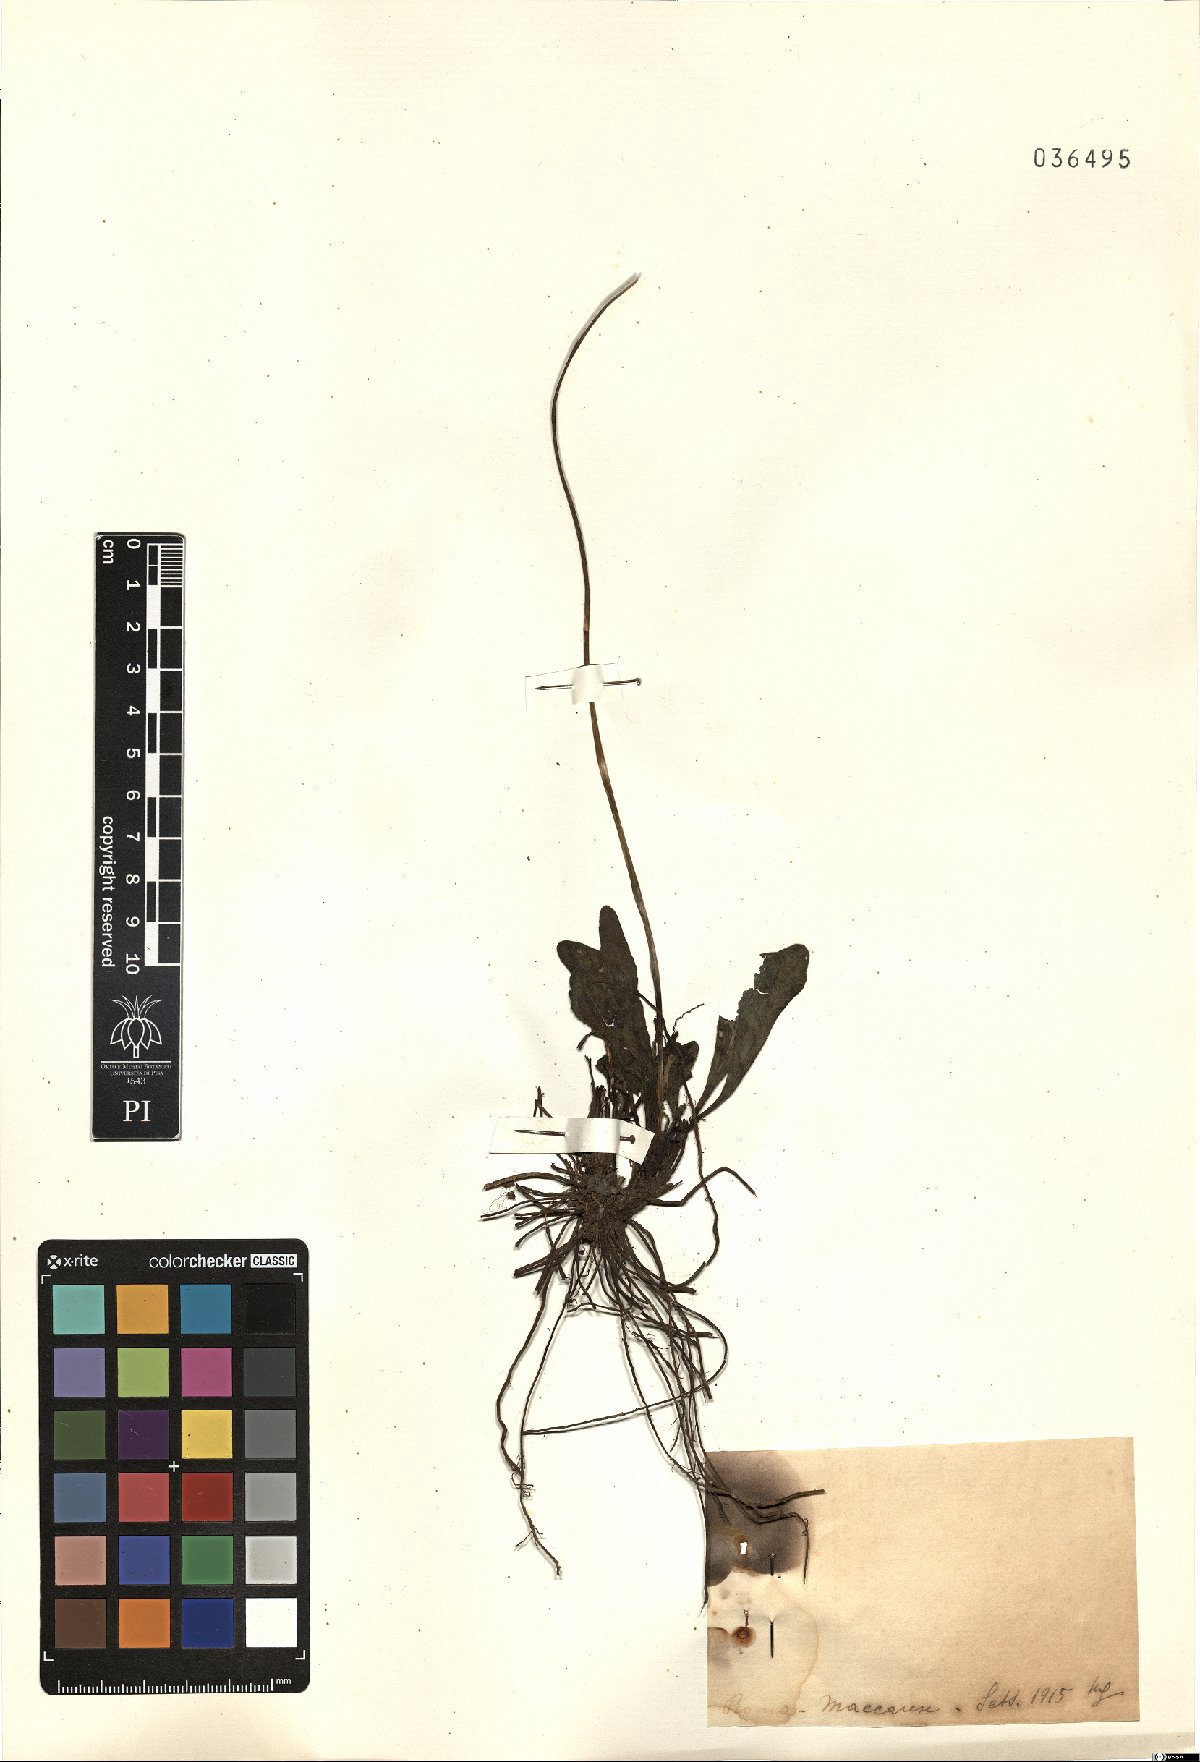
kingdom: Plantae
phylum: Tracheophyta
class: Magnoliopsida
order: Asterales
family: Asteraceae
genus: Bellis
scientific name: Bellis
